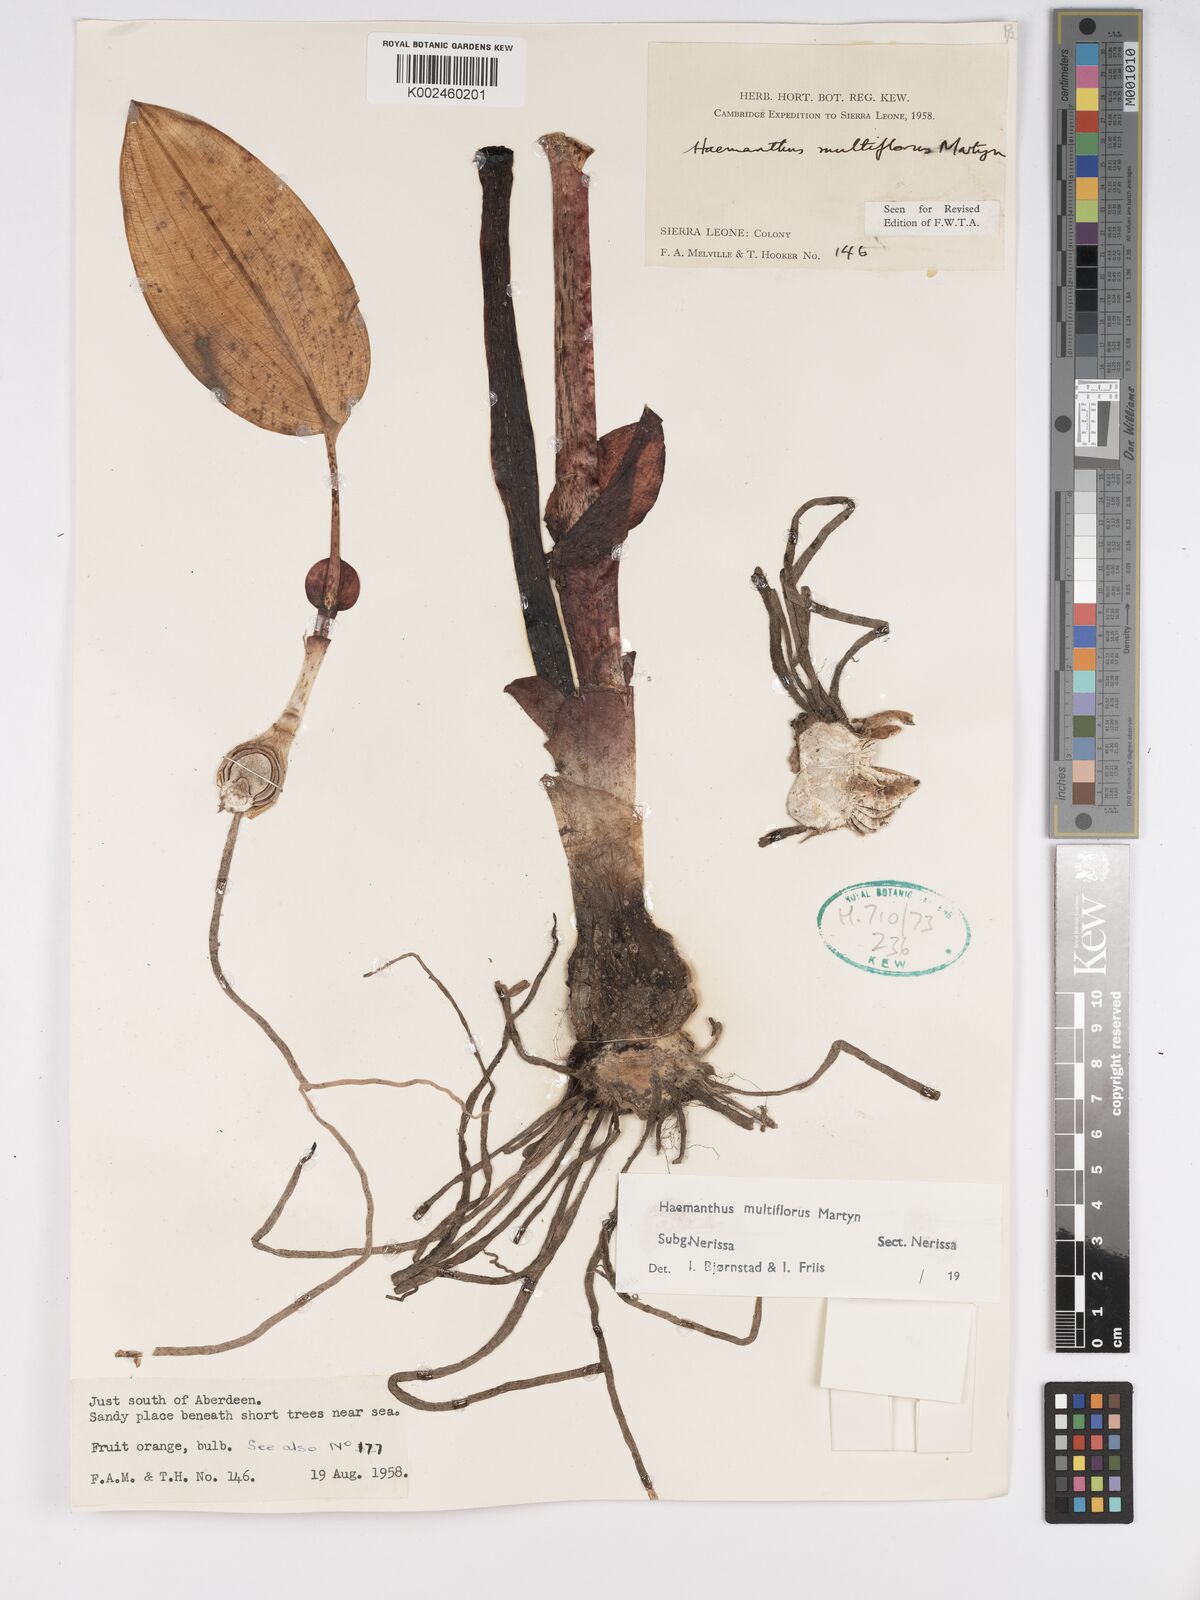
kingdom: Plantae
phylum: Tracheophyta
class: Liliopsida
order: Asparagales
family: Amaryllidaceae
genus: Scadoxus
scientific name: Scadoxus multiflorus
